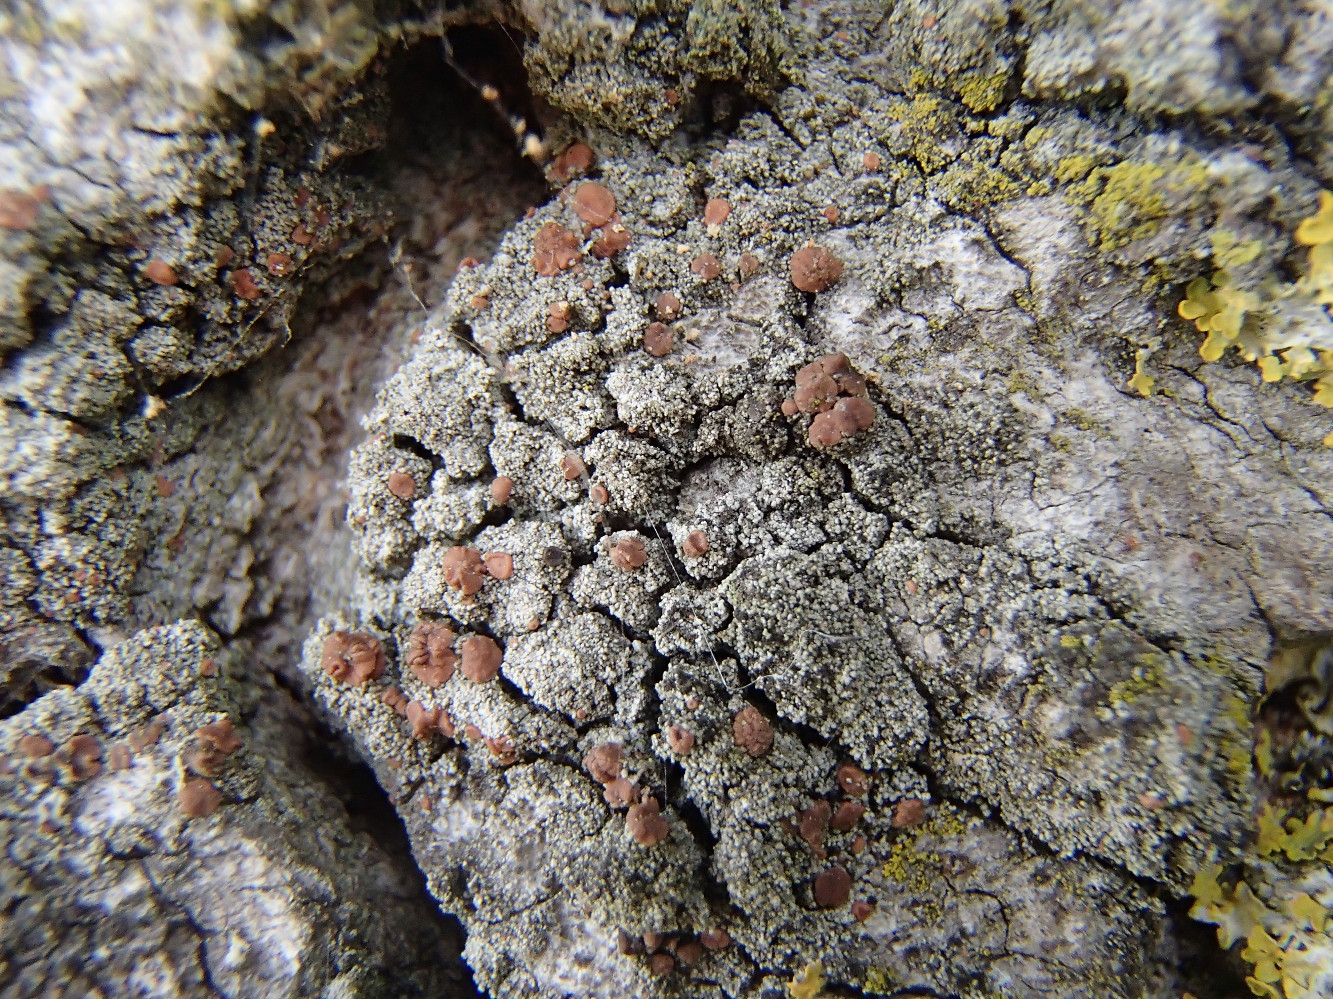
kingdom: Fungi
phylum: Ascomycota
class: Lecanoromycetes
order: Lecanorales
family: Ramalinaceae
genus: Bacidia
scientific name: Bacidia rubella
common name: rødbrun tensporelav
